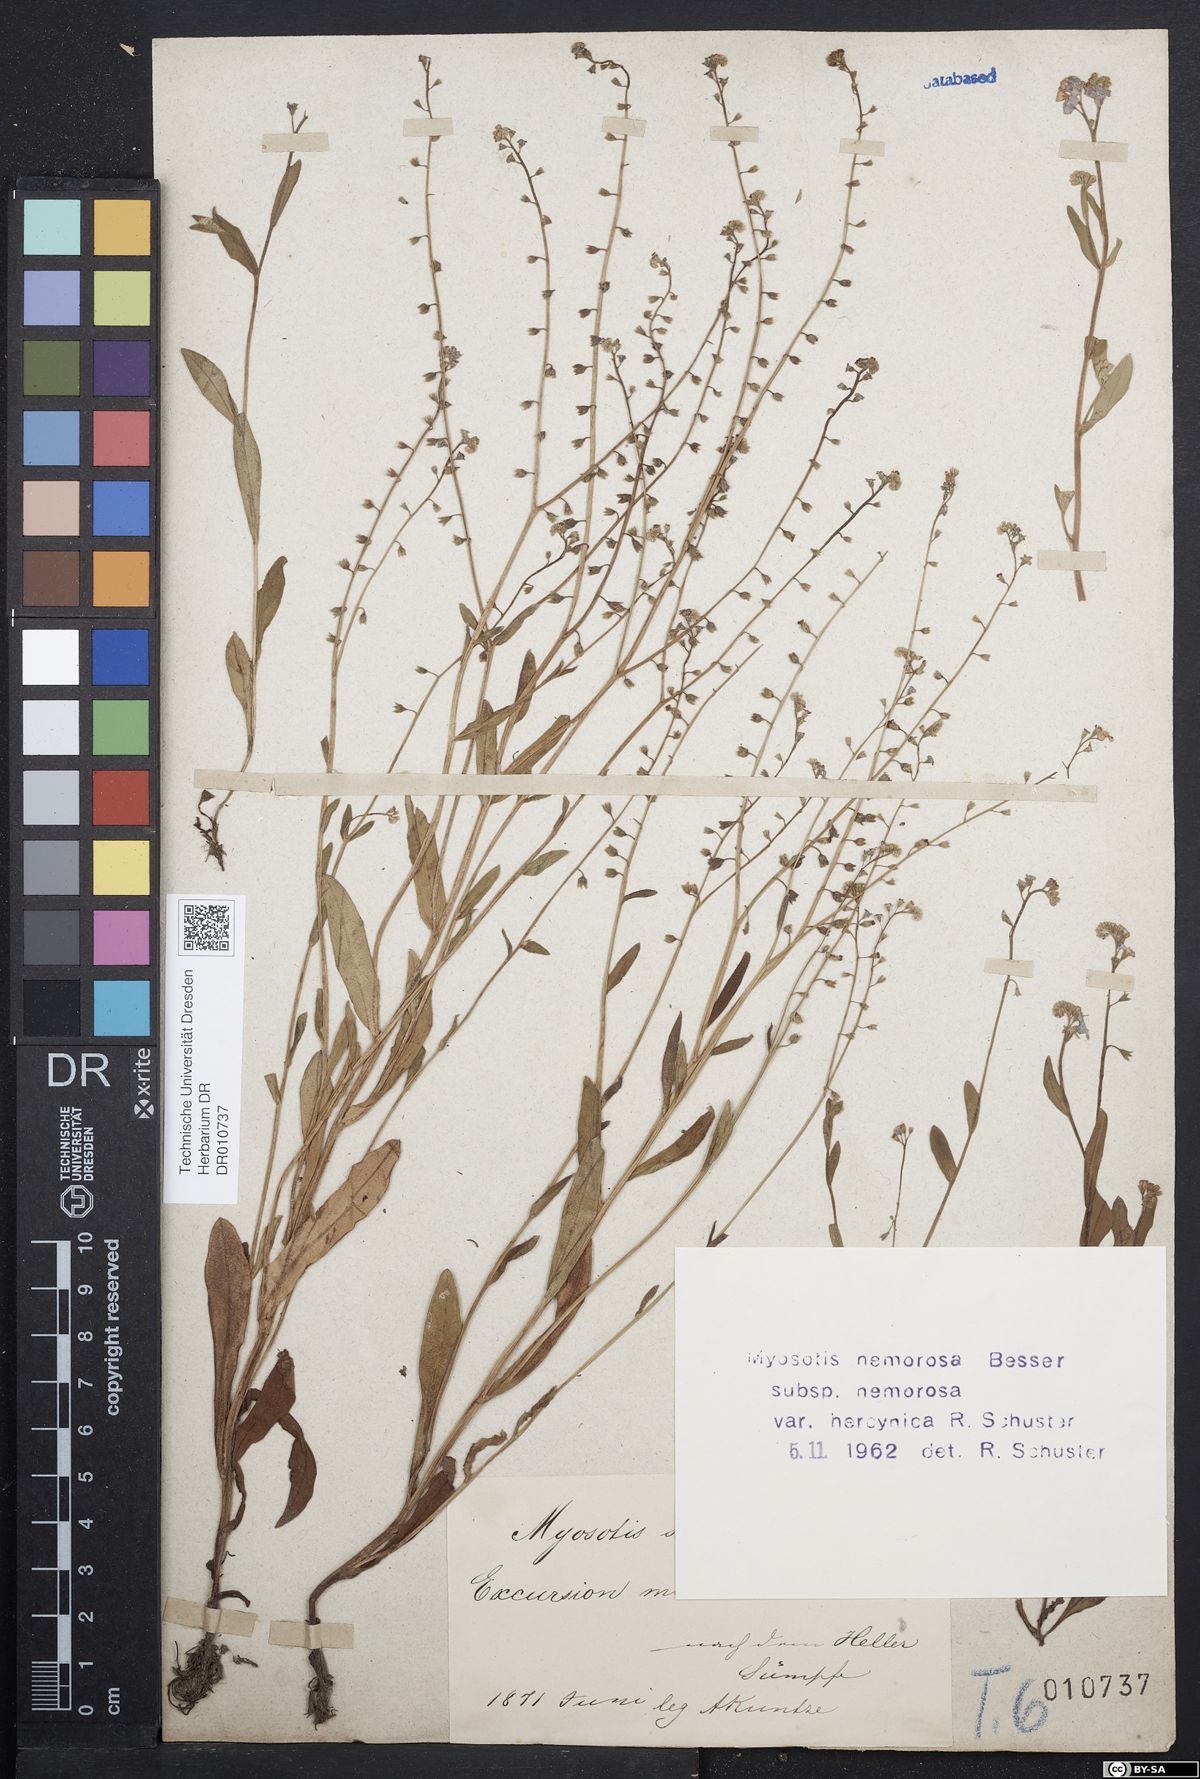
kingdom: Plantae
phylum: Tracheophyta
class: Magnoliopsida
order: Boraginales
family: Boraginaceae
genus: Myosotis
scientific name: Myosotis nemorosa
